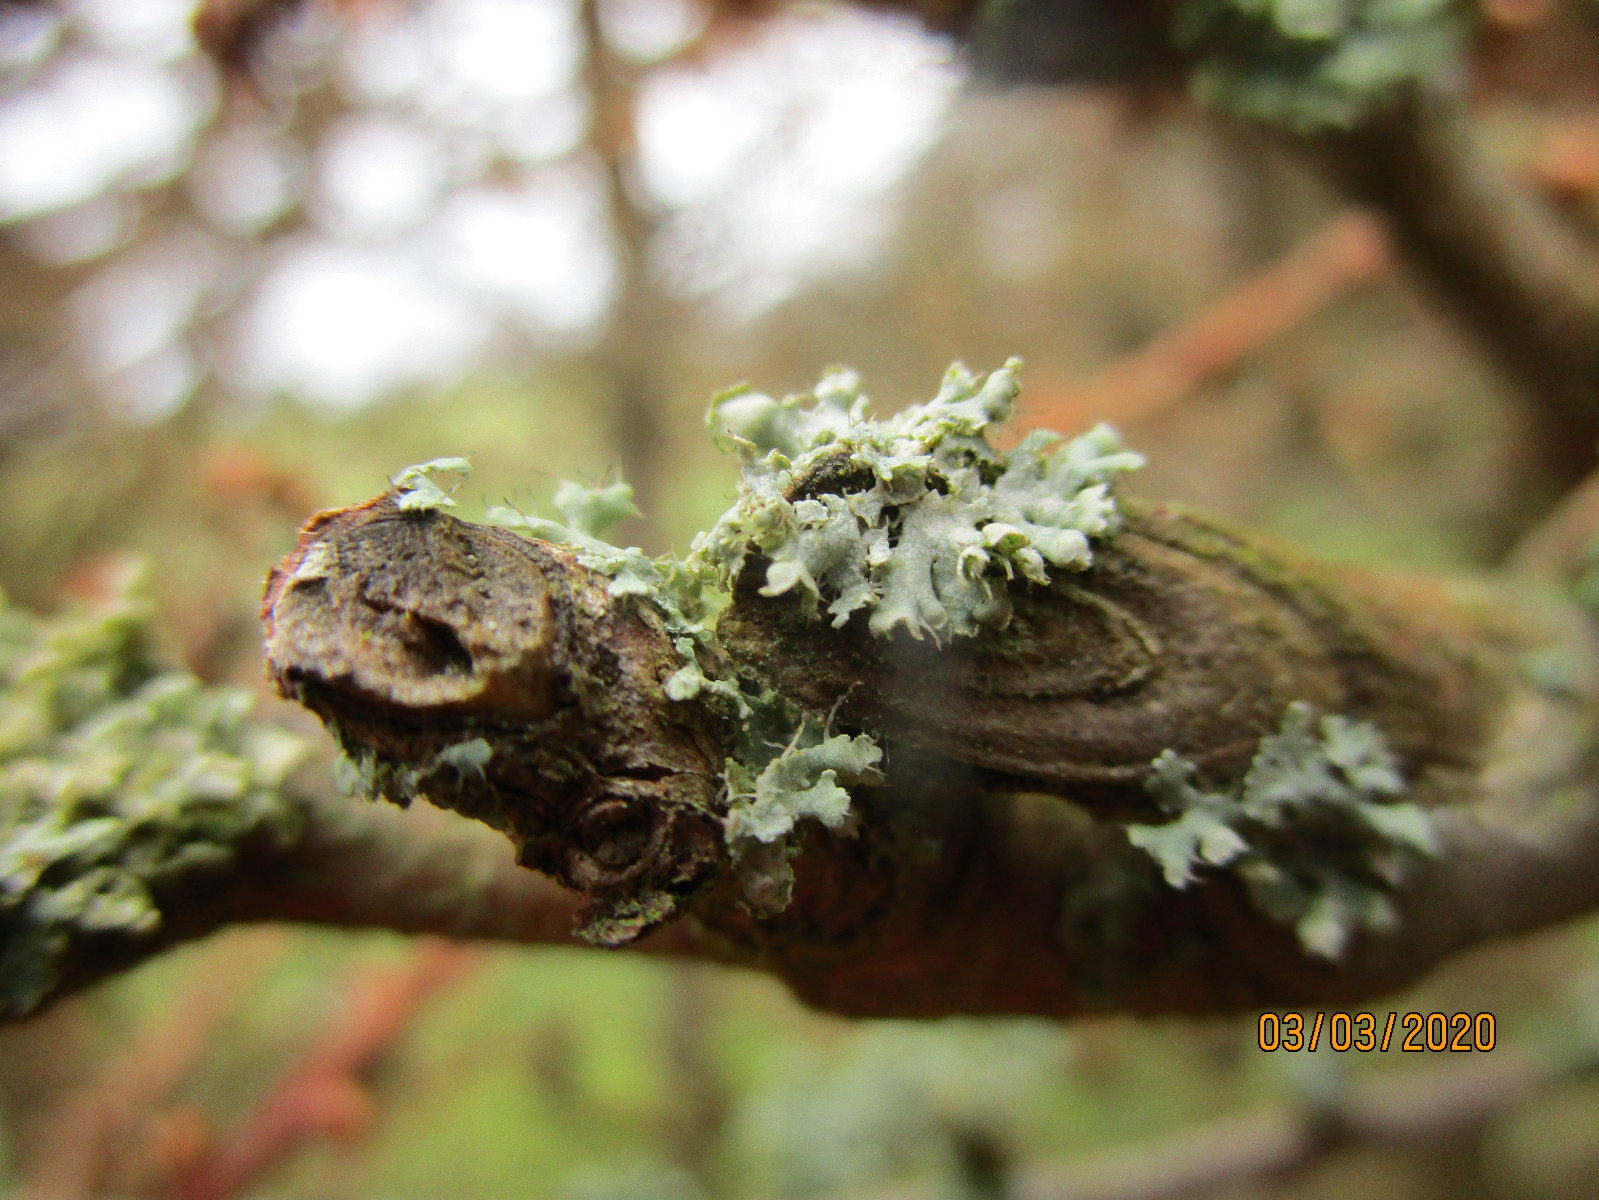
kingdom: Fungi
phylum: Ascomycota
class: Lecanoromycetes
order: Caliciales
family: Physciaceae
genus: Physcia
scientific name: Physcia adscendens
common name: hætte-rosetlav
